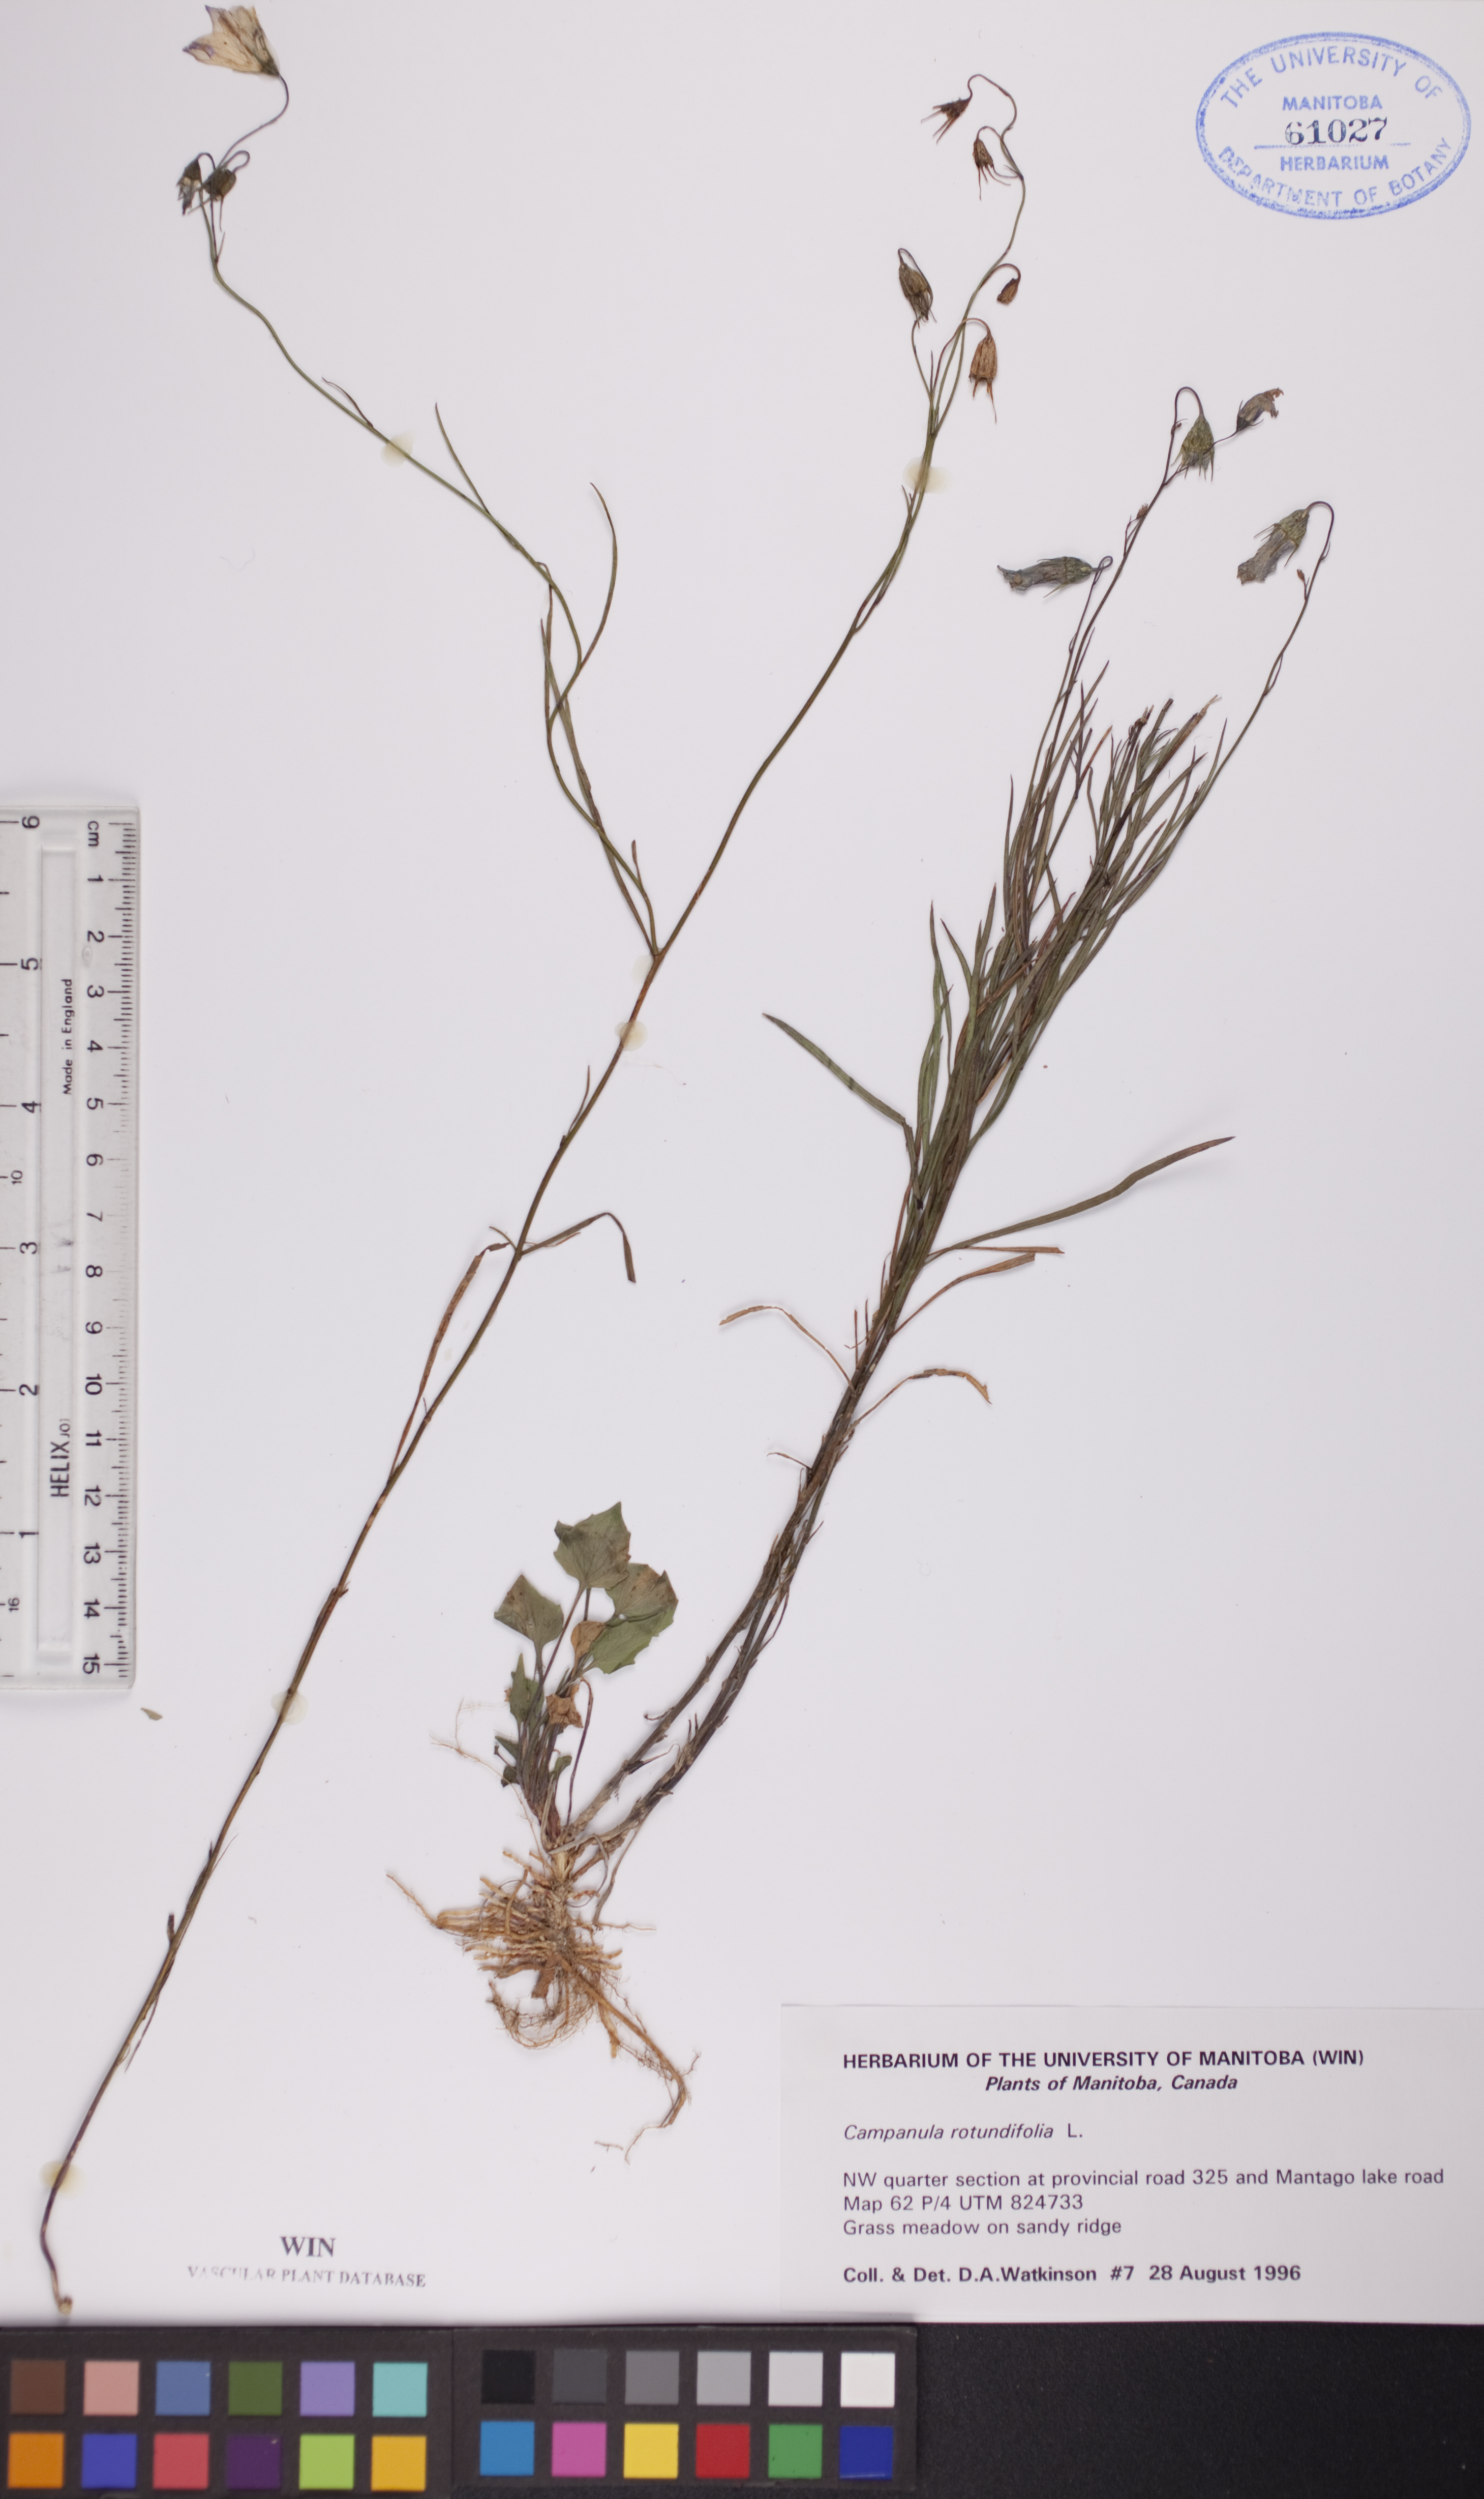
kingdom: Plantae
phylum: Tracheophyta
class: Magnoliopsida
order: Asterales
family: Campanulaceae
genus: Campanula
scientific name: Campanula rotundifolia
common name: Harebell
